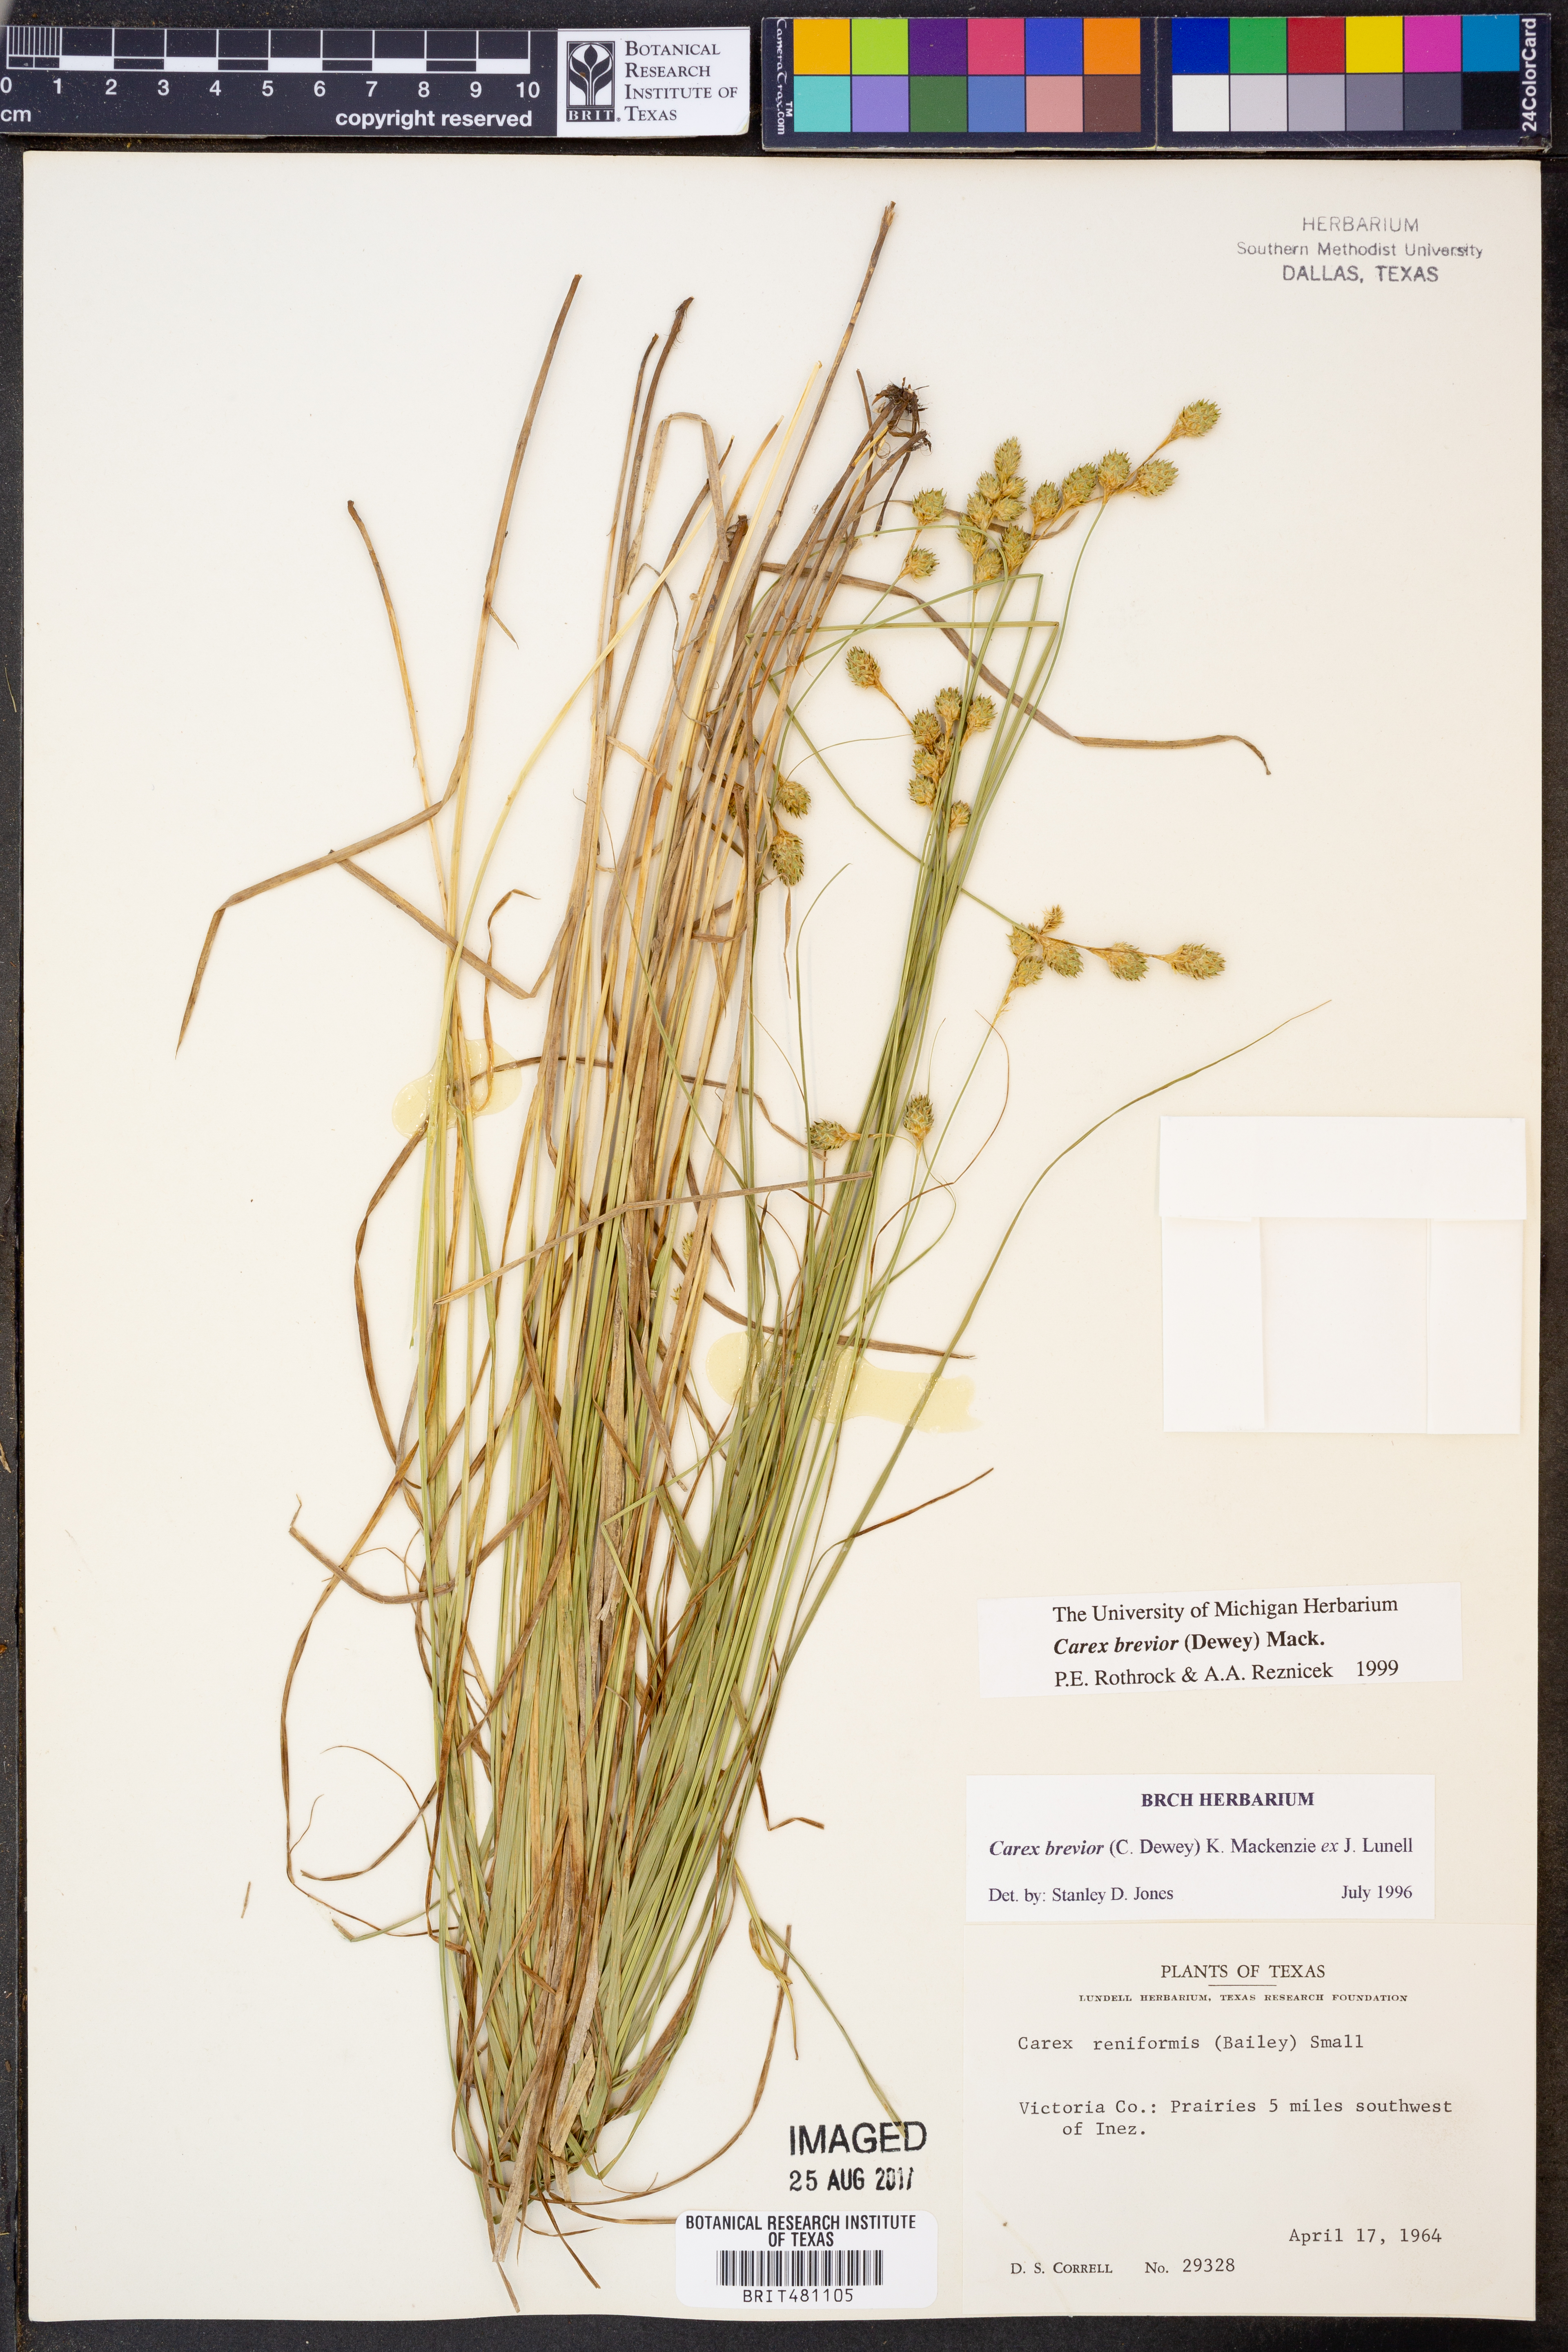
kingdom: Plantae
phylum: Tracheophyta
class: Liliopsida
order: Poales
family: Cyperaceae
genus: Carex
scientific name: Carex brevior
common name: Brevior sedge
